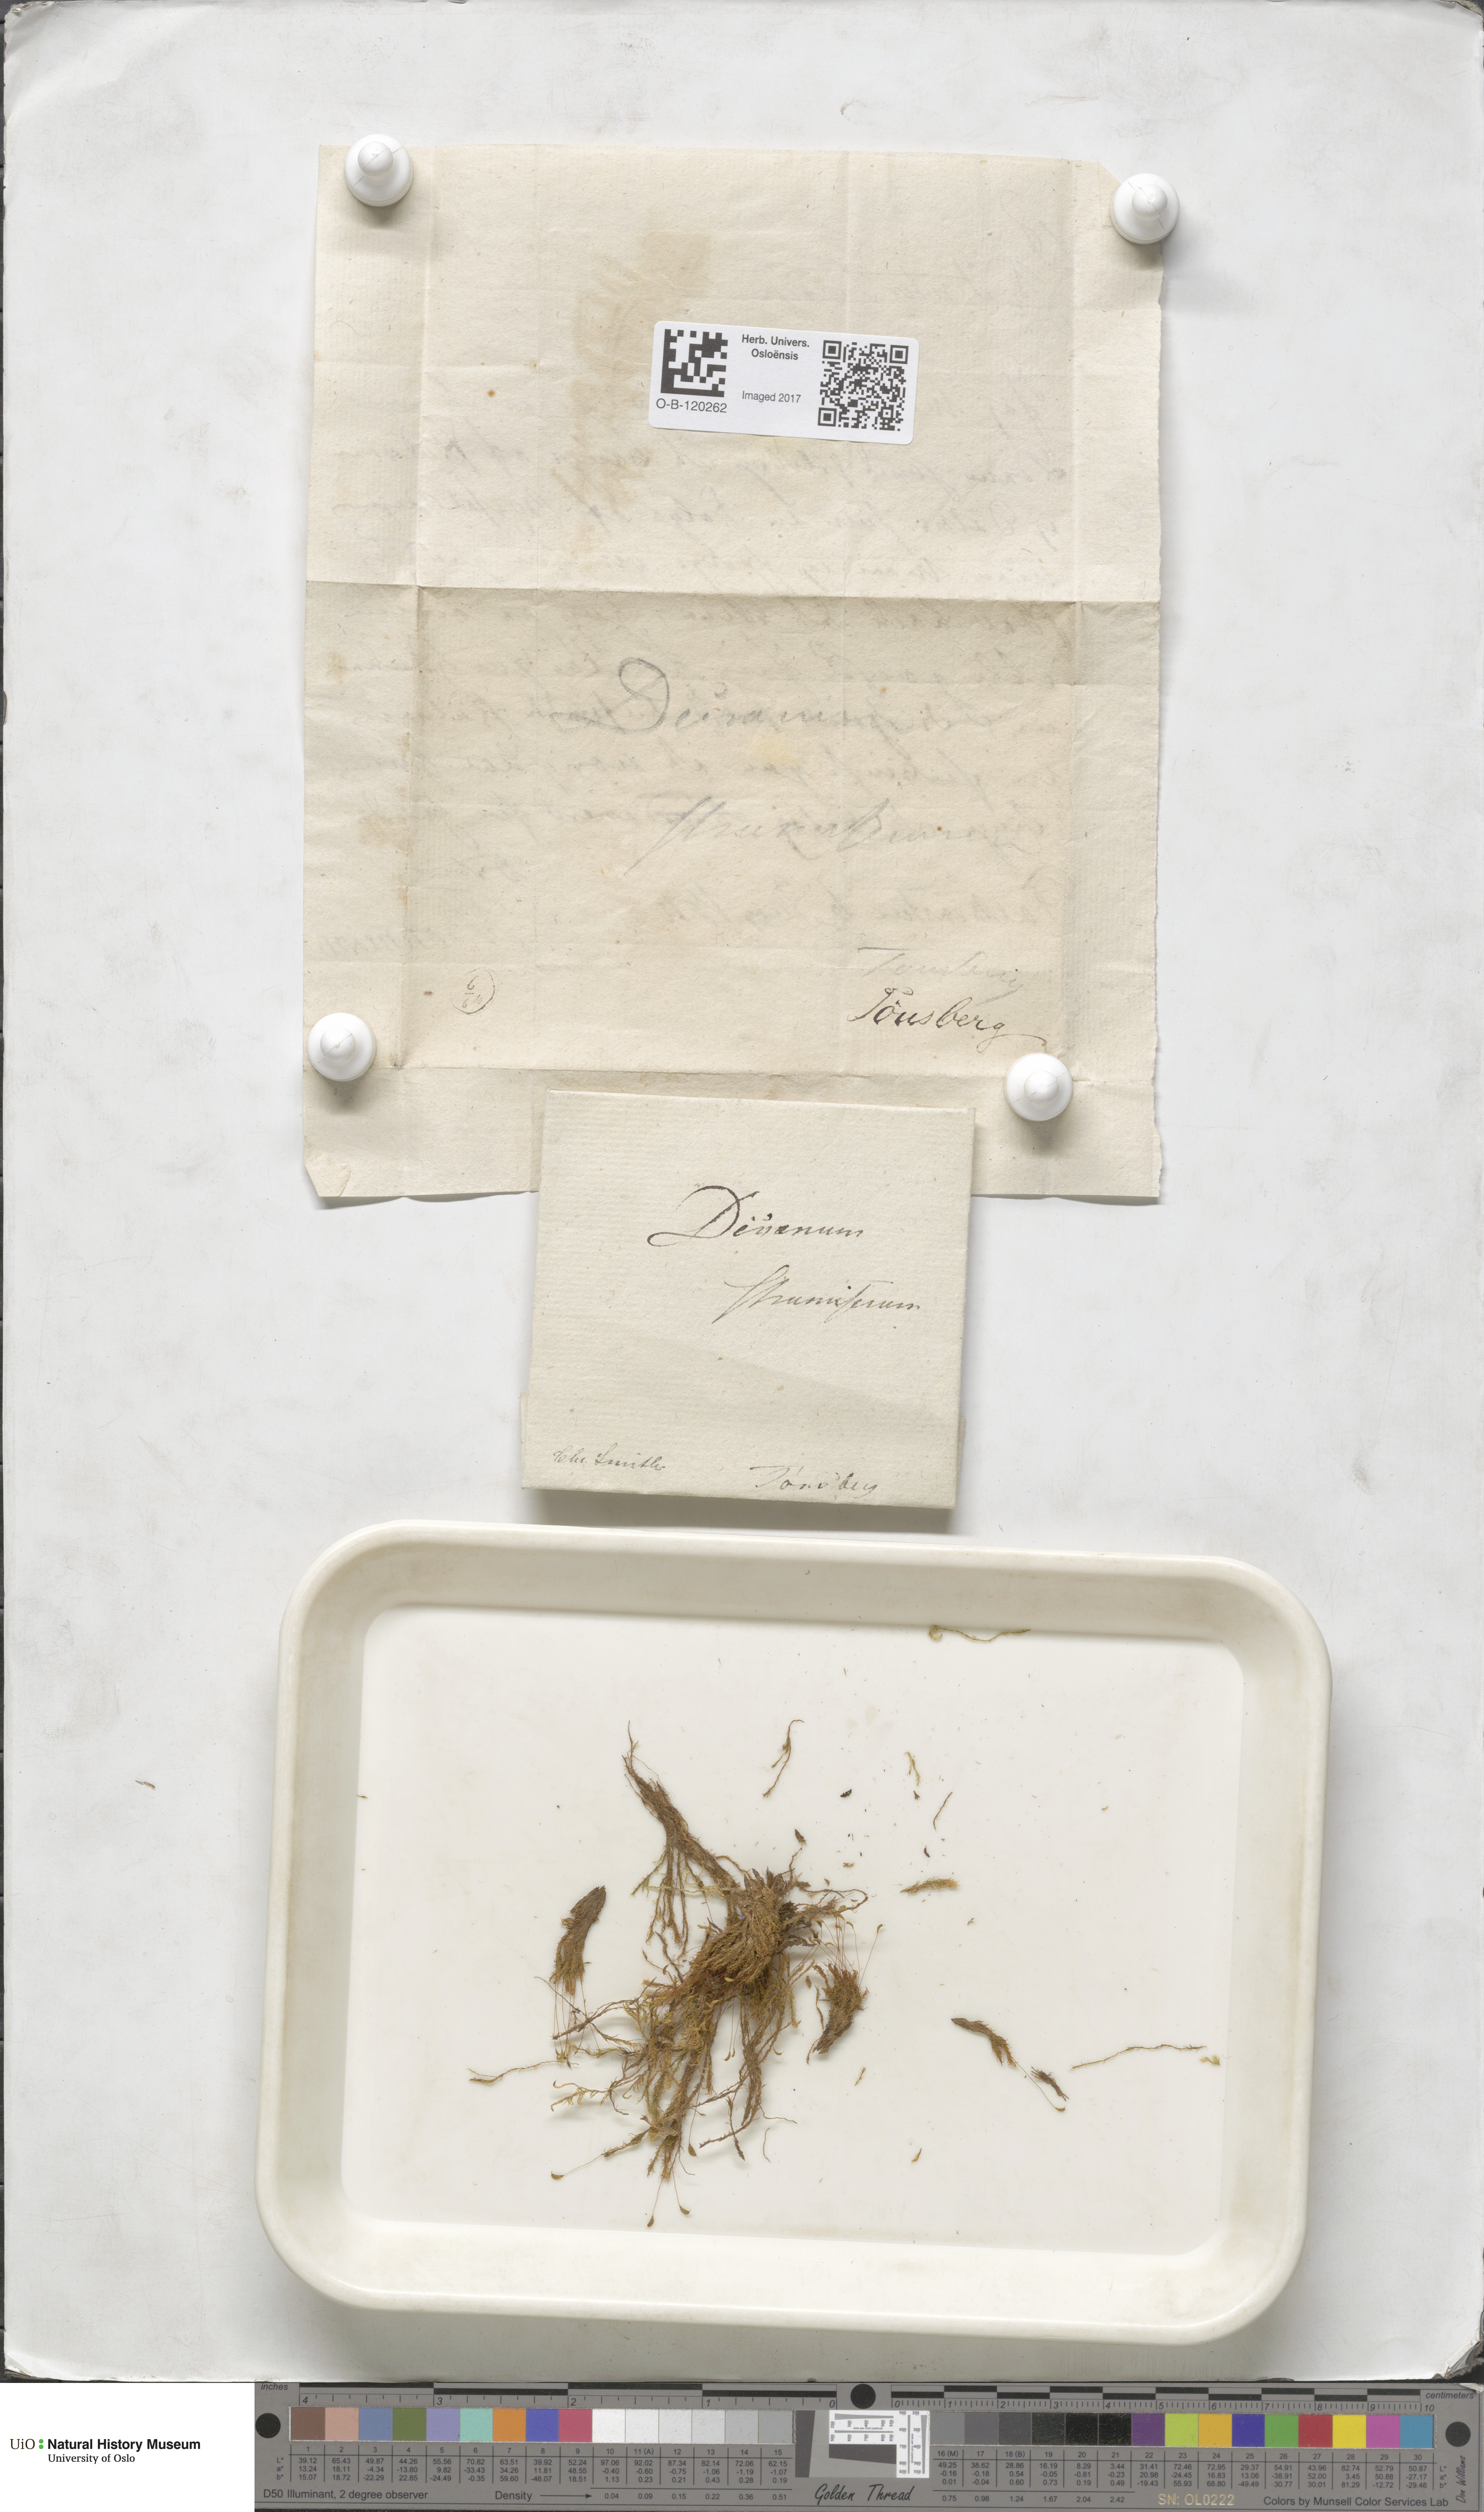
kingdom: Plantae
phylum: Bryophyta
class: Bryopsida
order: Dicranales
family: Rhabdoweisiaceae
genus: Cynodontium
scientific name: Cynodontium strumiferum
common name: Swollen dogtooth moss
